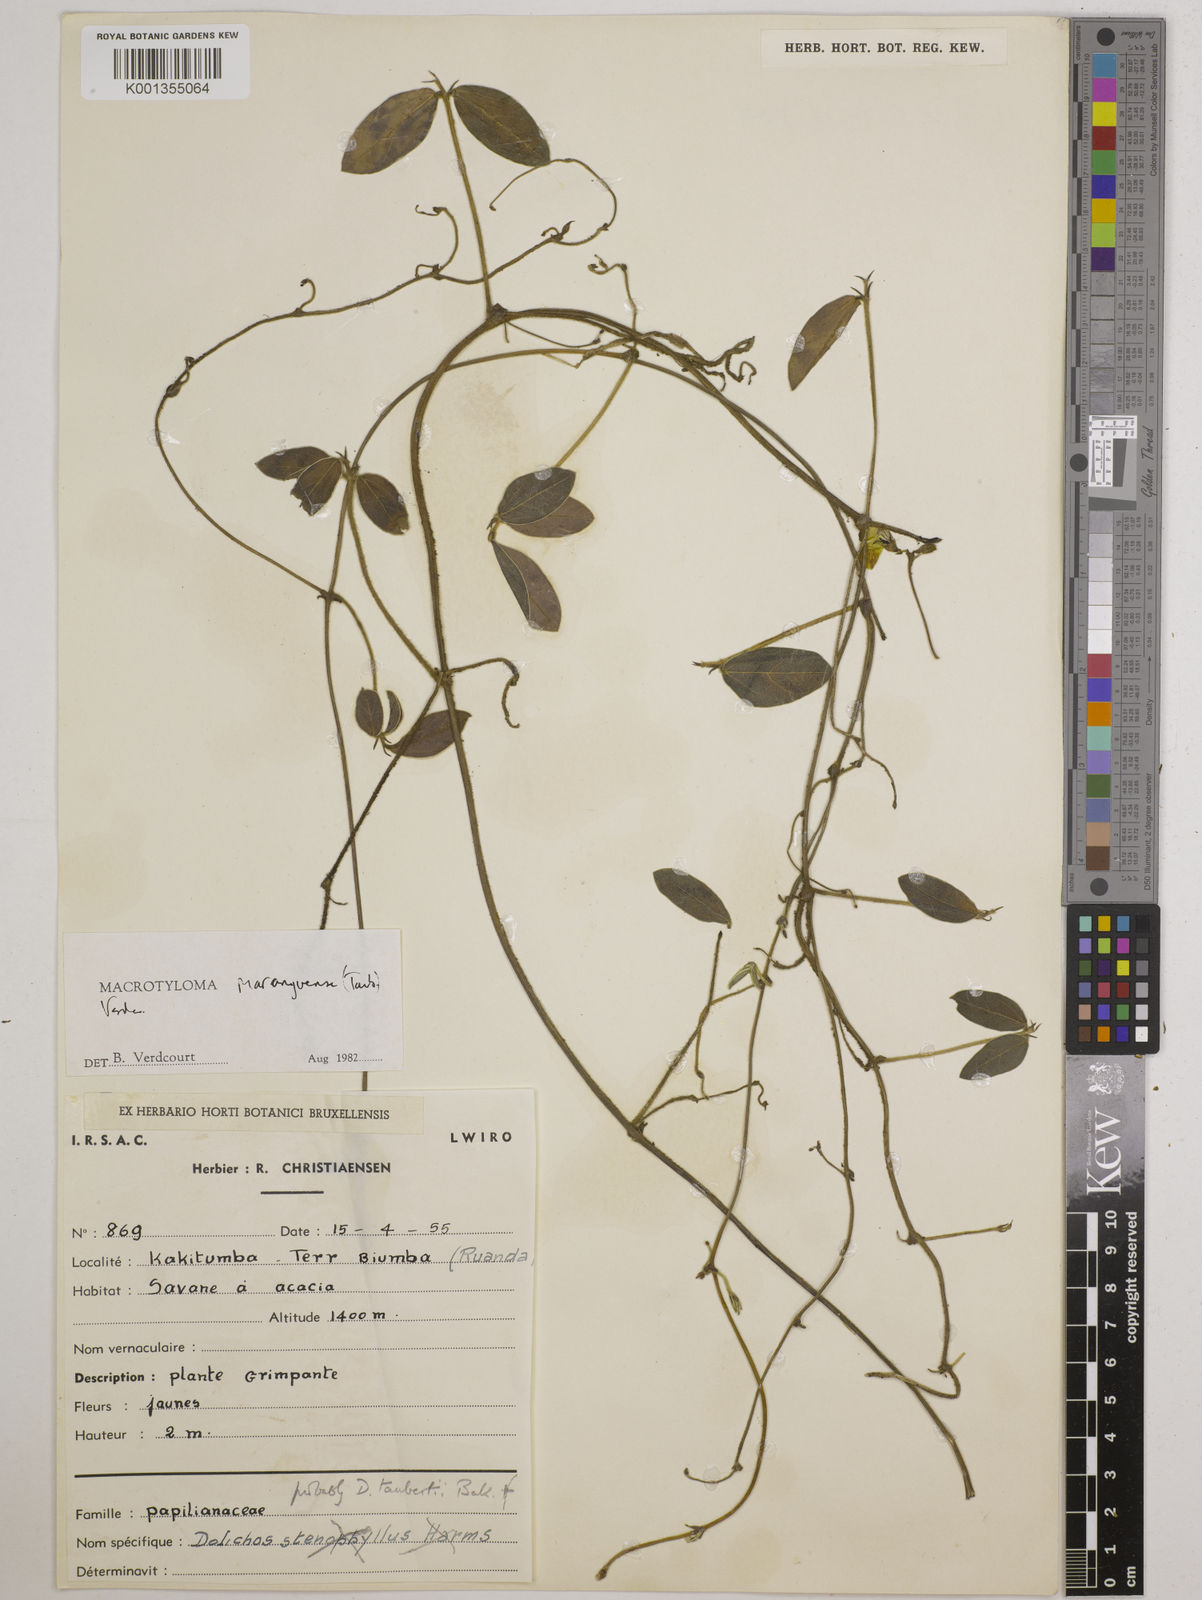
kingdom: Plantae
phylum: Tracheophyta
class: Magnoliopsida
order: Fabales
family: Fabaceae
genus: Macrotyloma
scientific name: Macrotyloma maranguense
